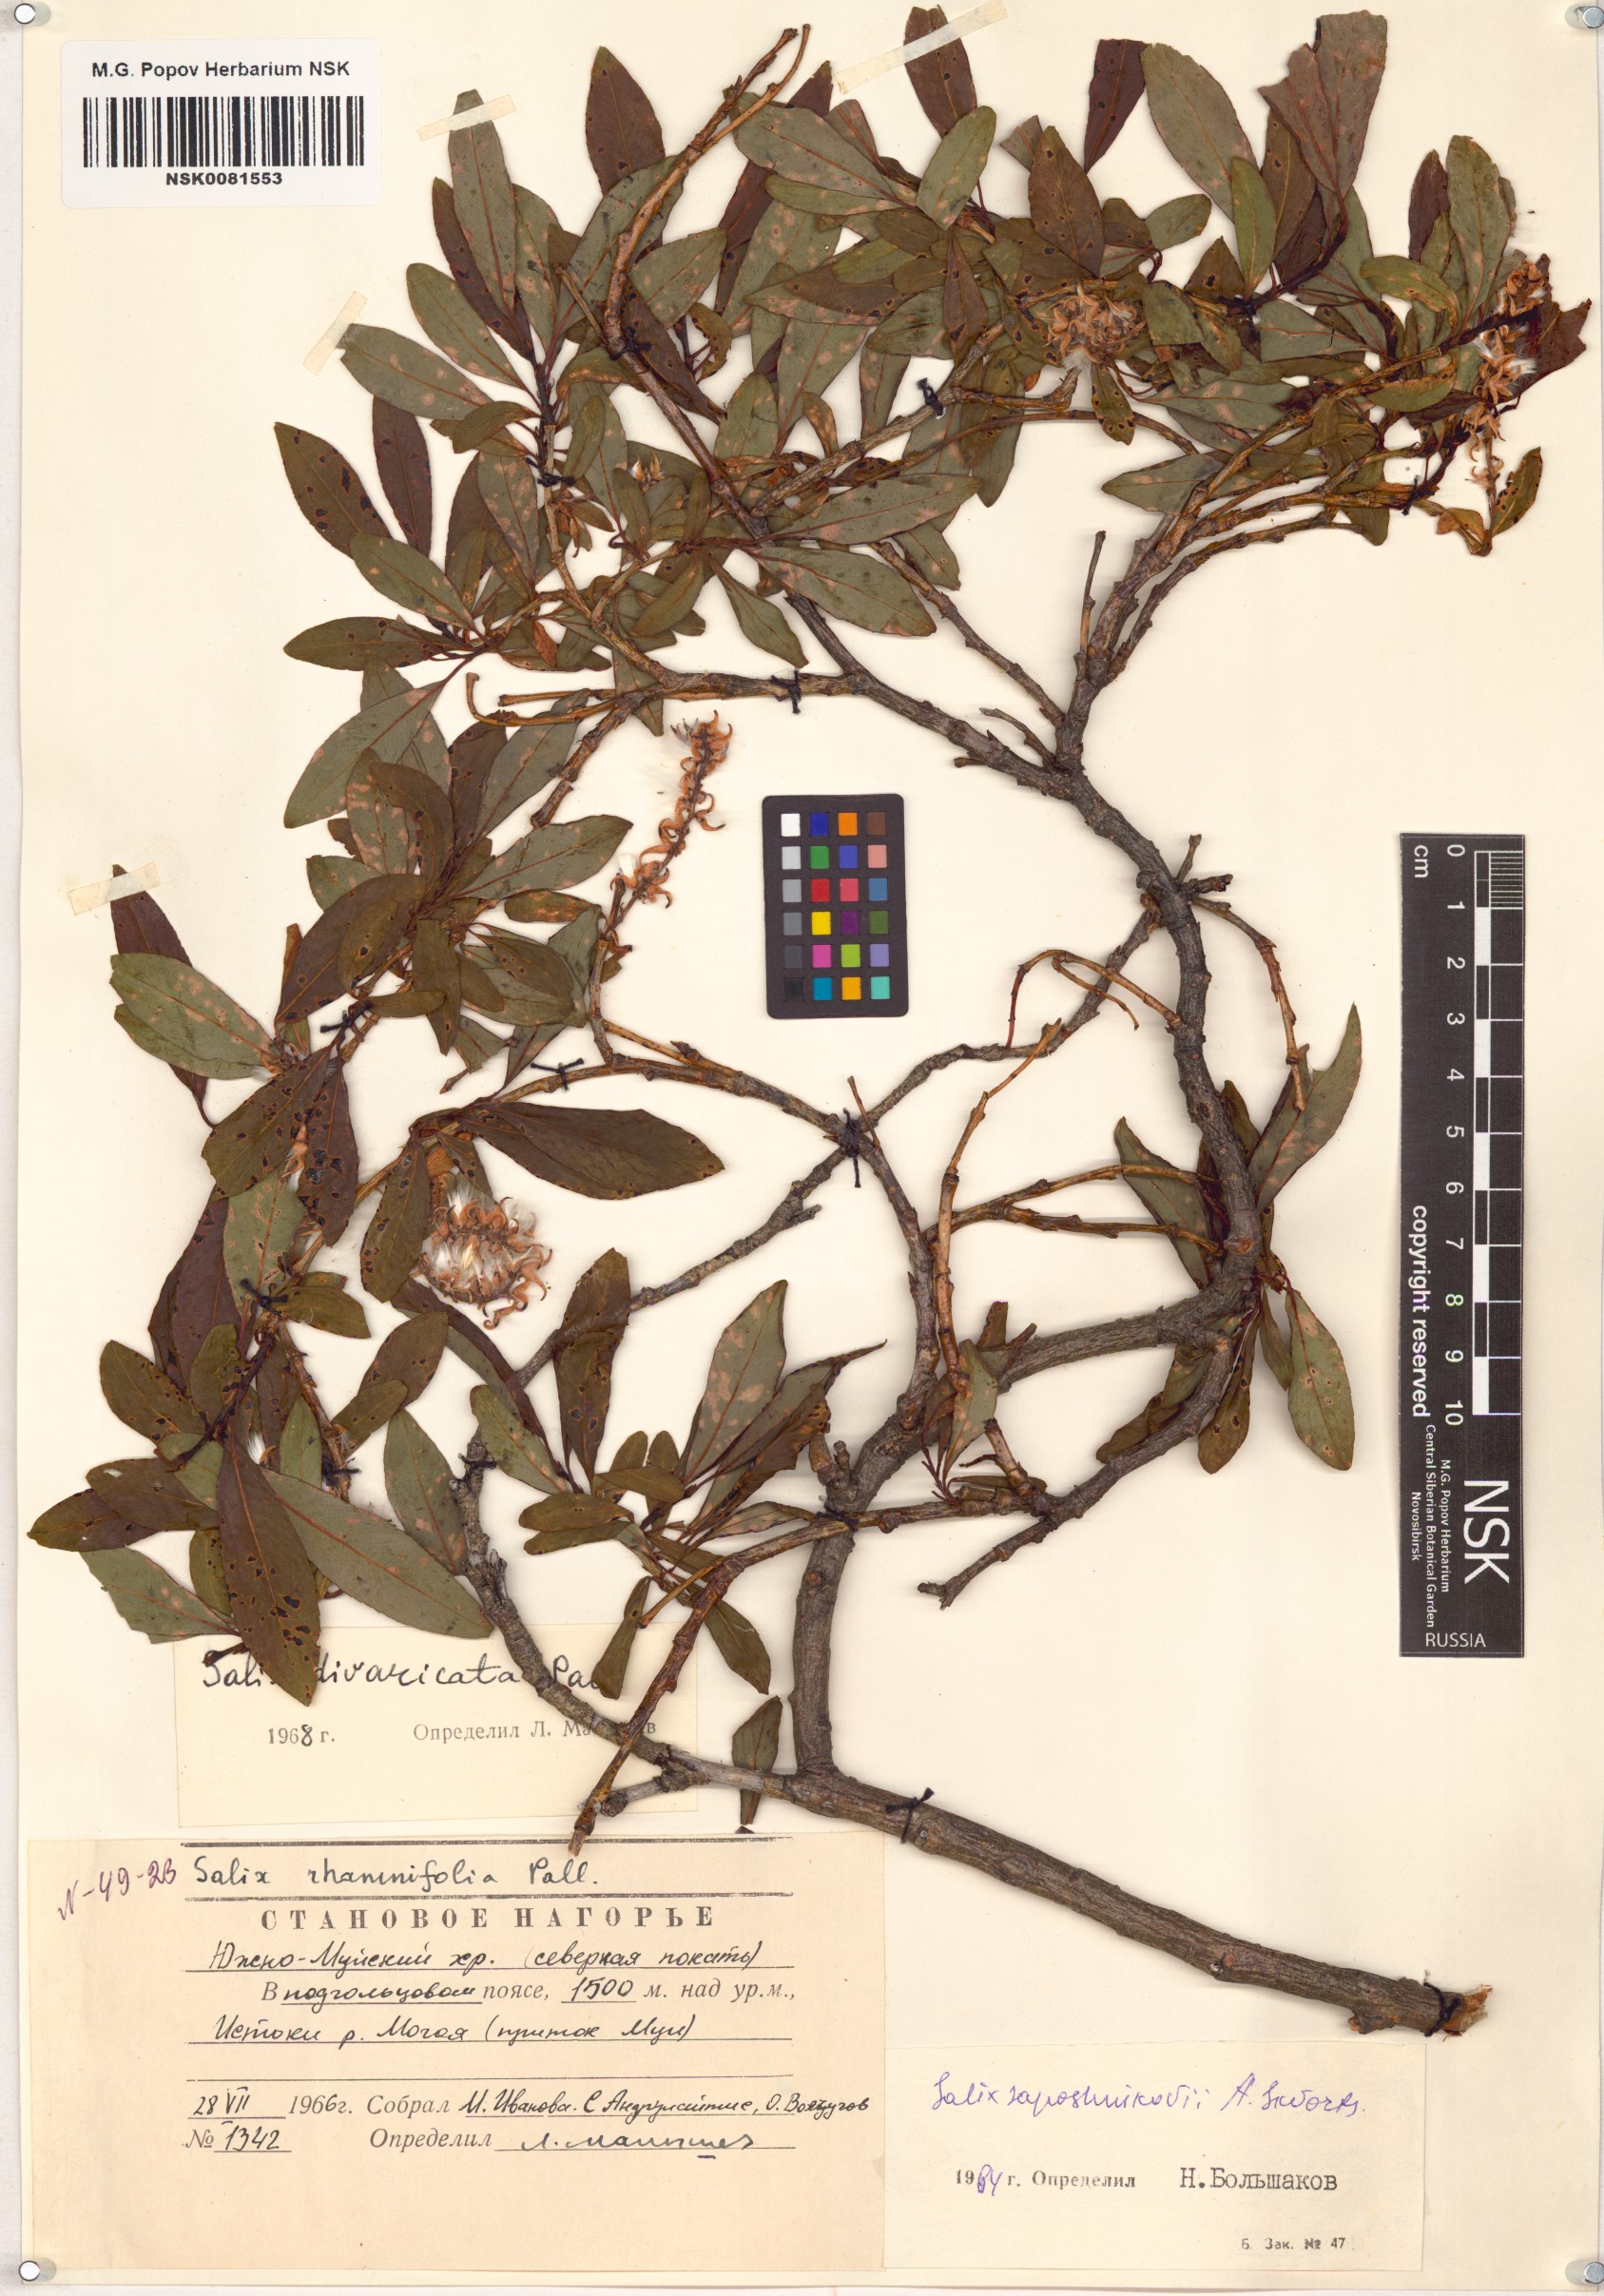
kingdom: Plantae
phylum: Tracheophyta
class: Magnoliopsida
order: Malpighiales
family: Salicaceae
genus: Salix
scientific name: Salix saposhnikovii
